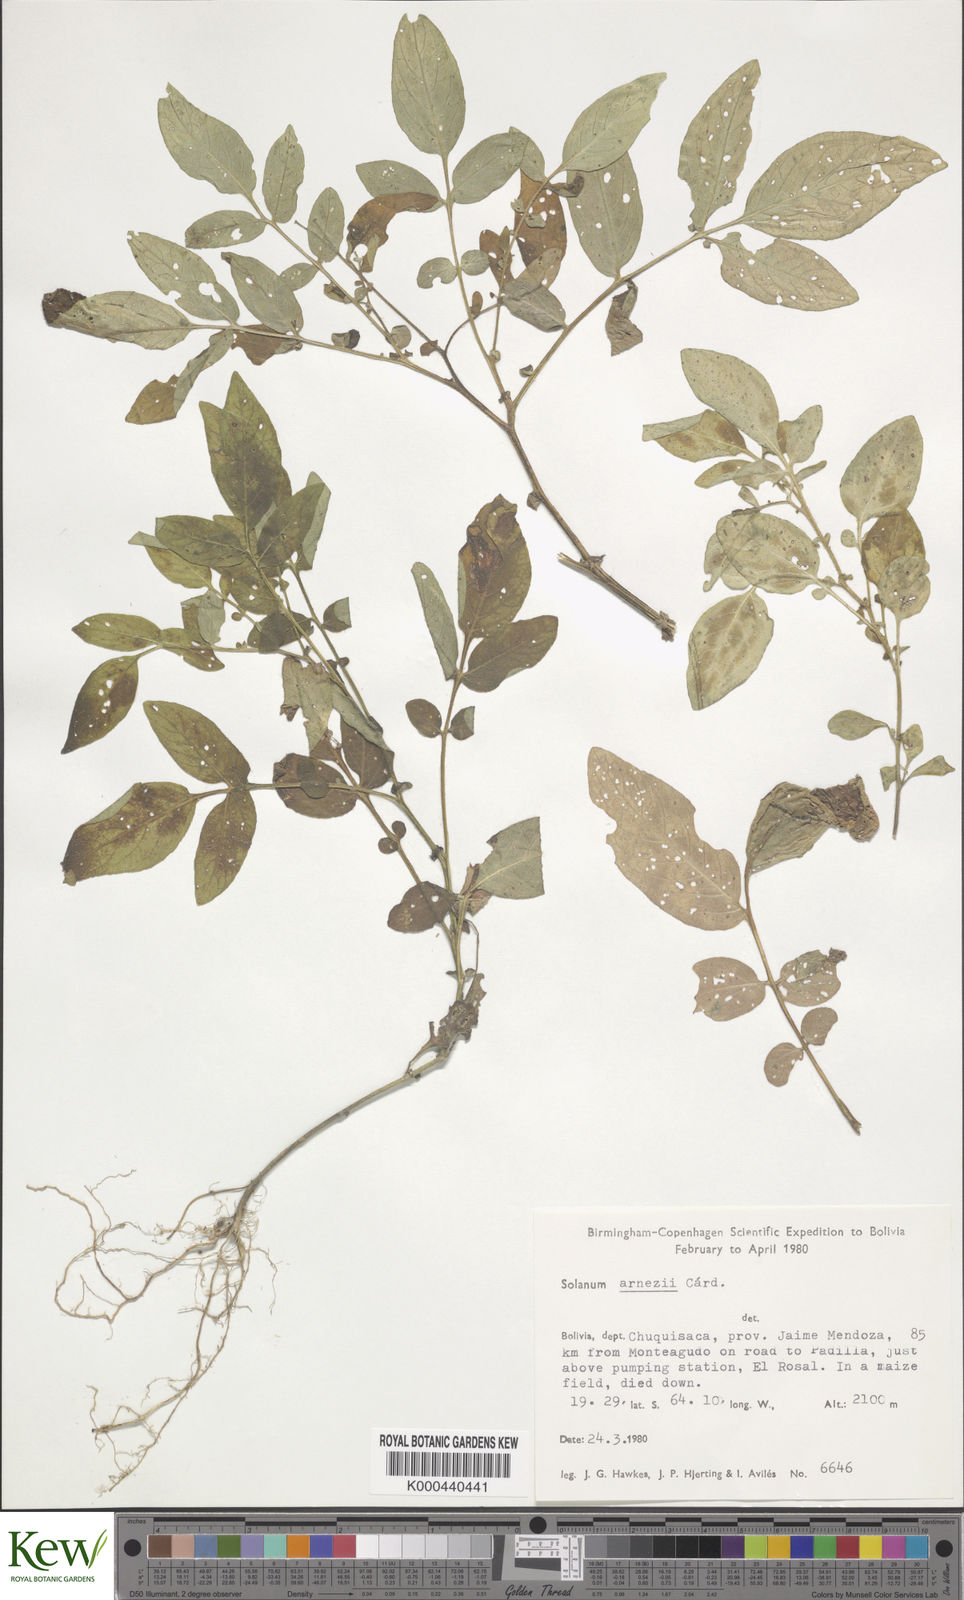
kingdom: Plantae
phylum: Tracheophyta
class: Magnoliopsida
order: Solanales
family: Solanaceae
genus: Solanum
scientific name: Solanum chacoense
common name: Chaco potato
